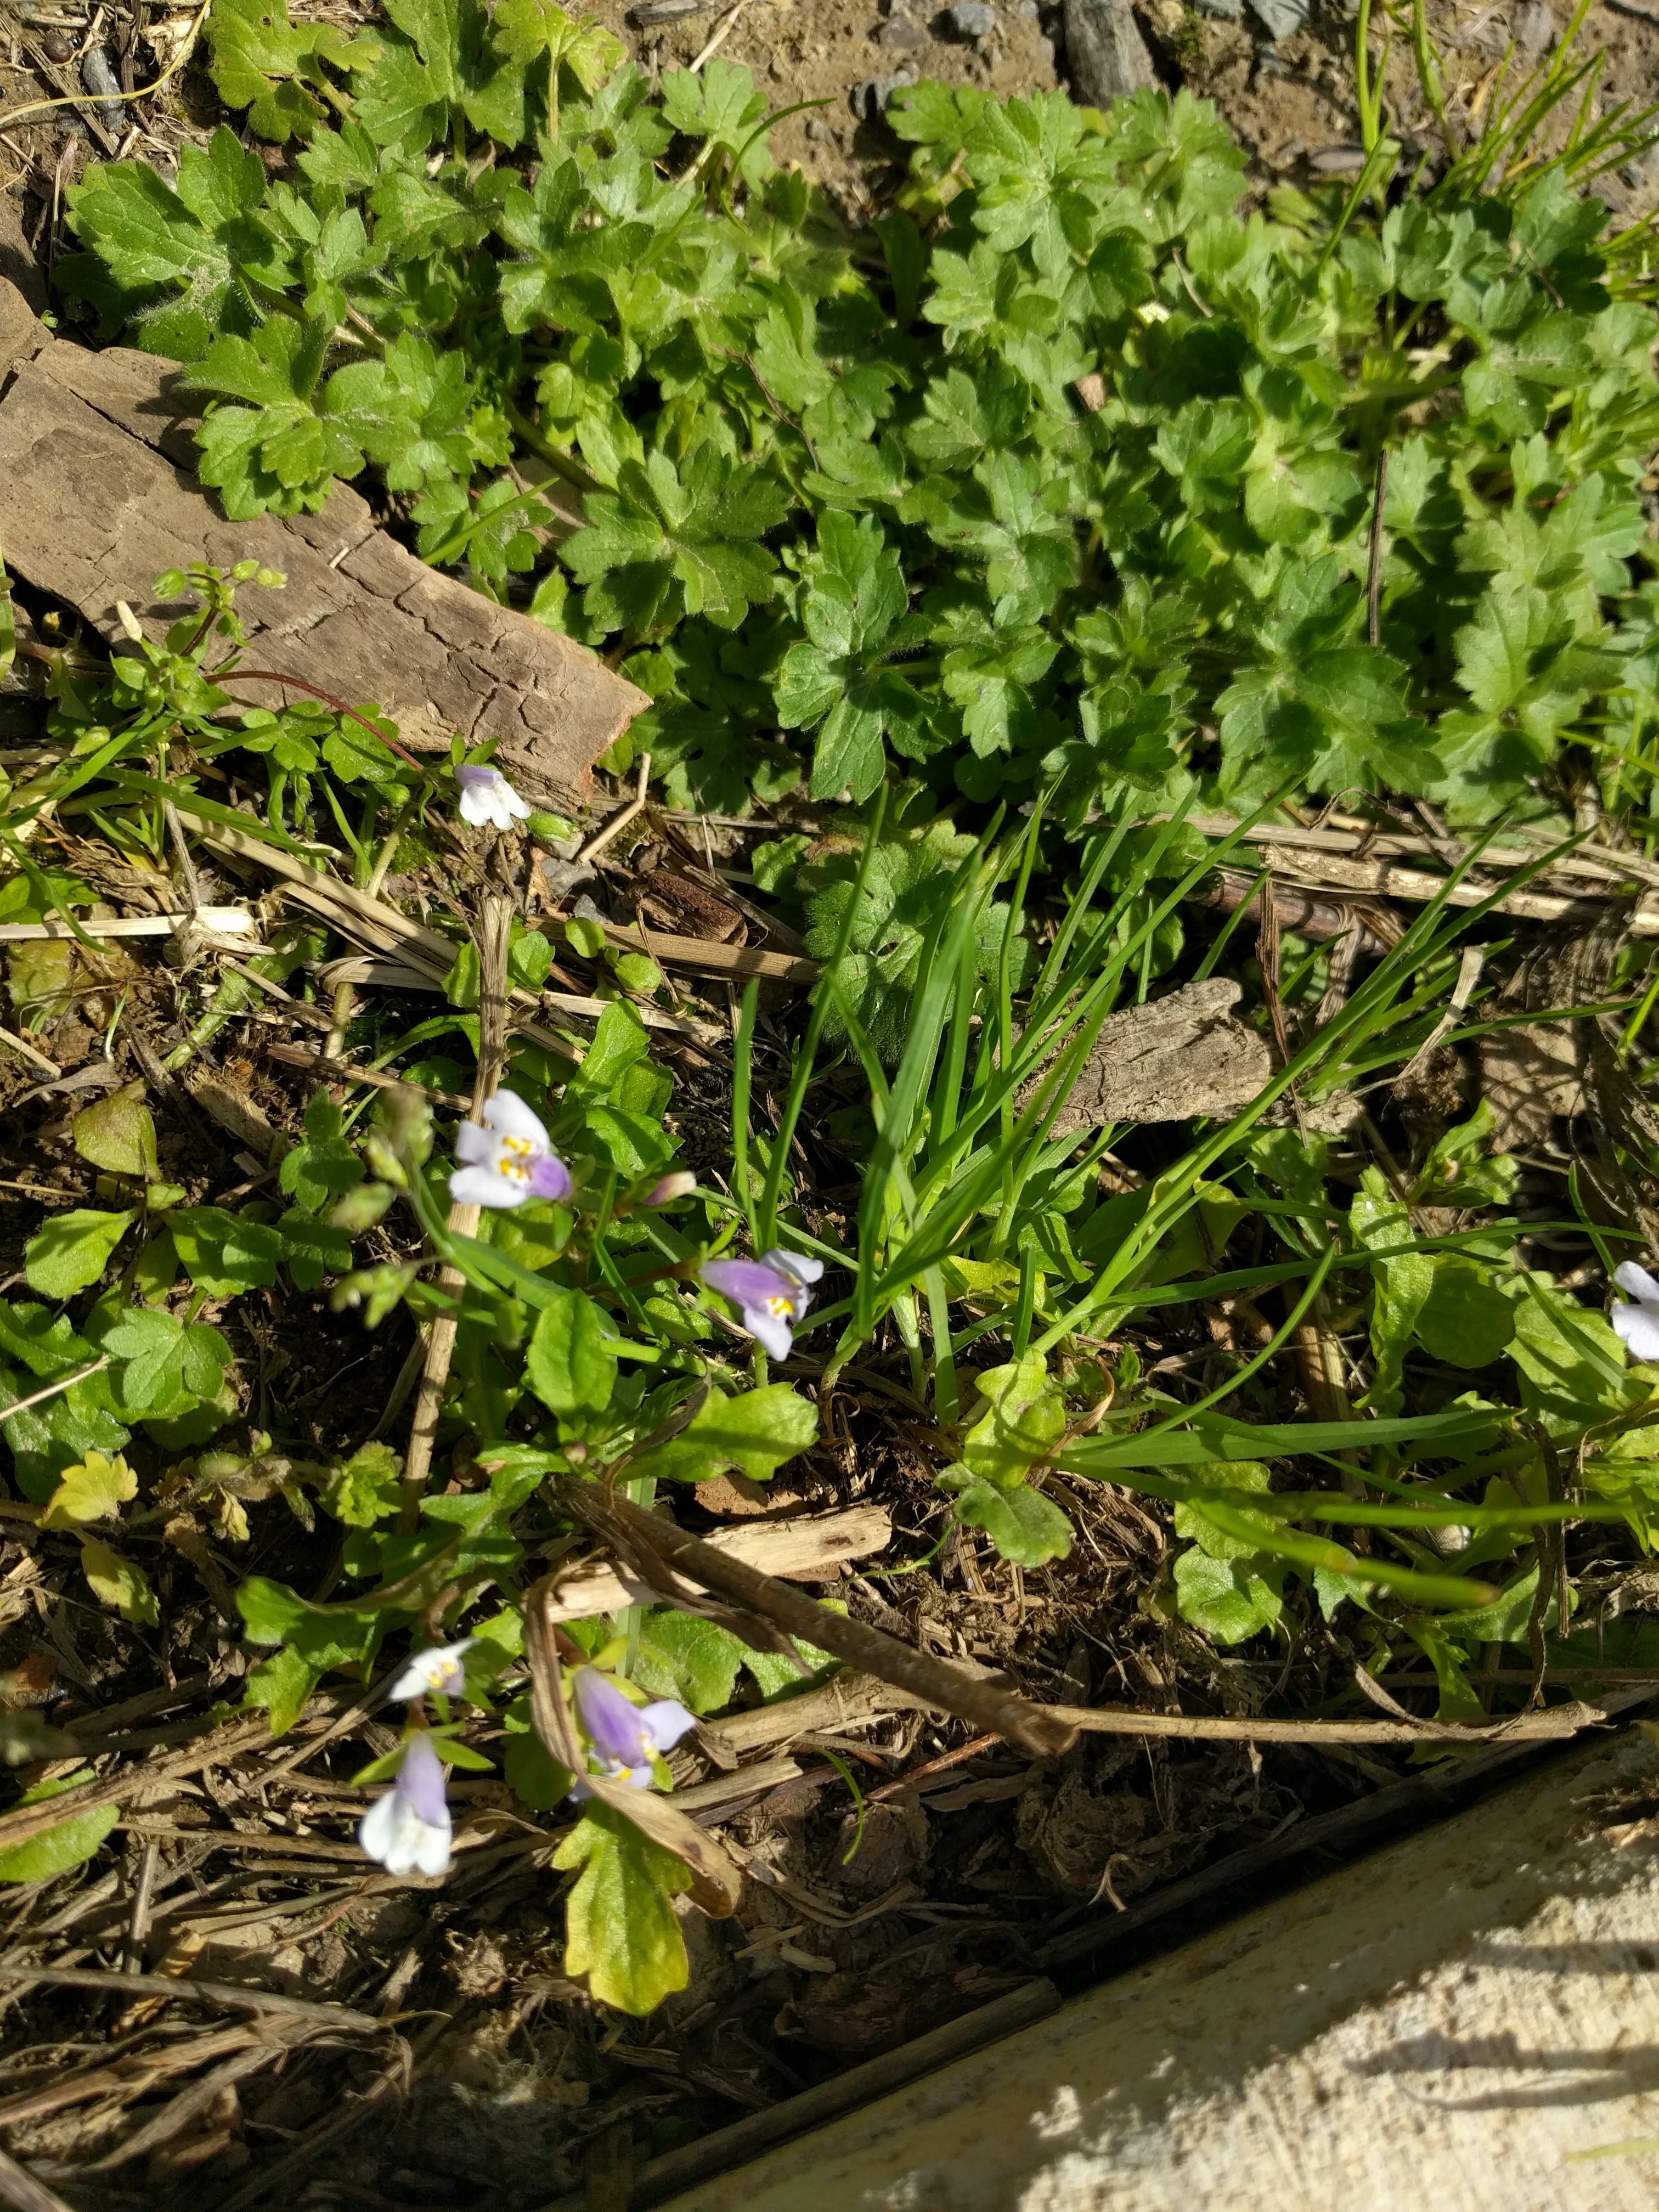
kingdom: Plantae
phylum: Tracheophyta
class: Magnoliopsida
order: Lamiales
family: Mazaceae
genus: Mazus
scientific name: Mazus pumilus
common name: Japanese mazus
